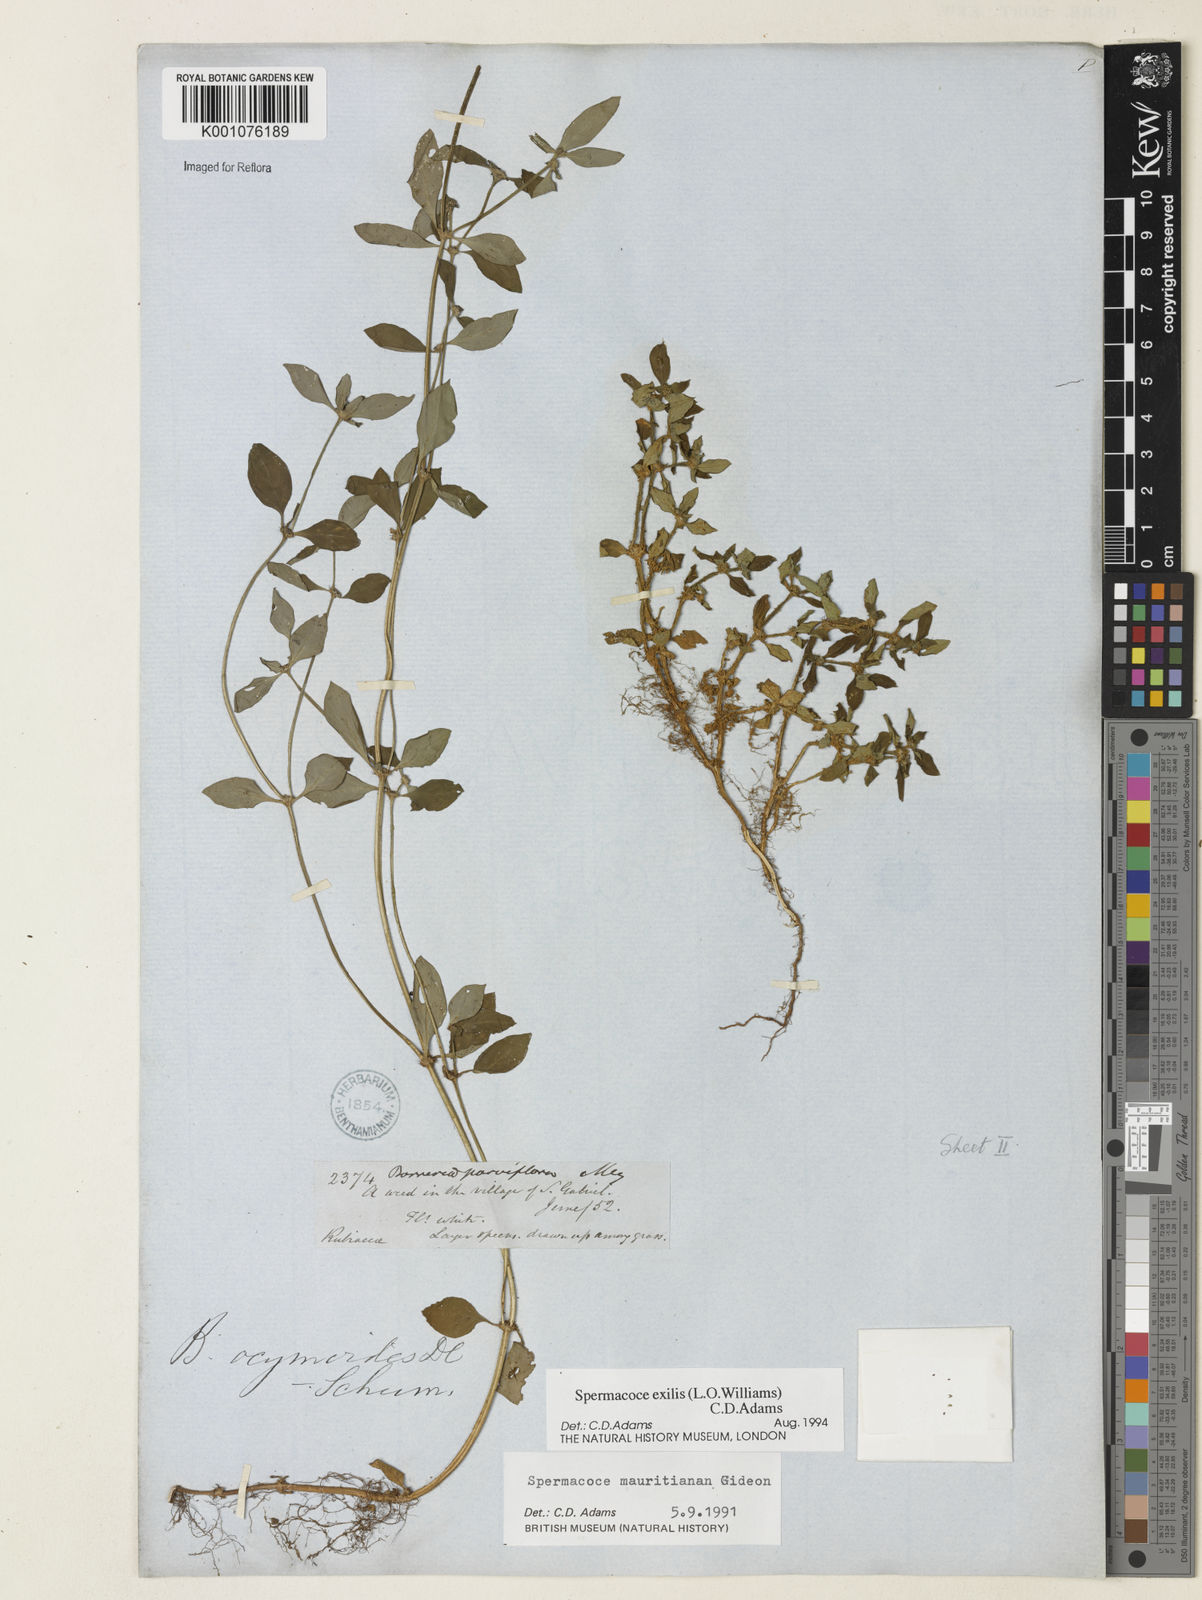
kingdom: Plantae
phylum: Tracheophyta
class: Magnoliopsida
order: Gentianales
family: Rubiaceae
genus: Spermacoce
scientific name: Spermacoce exilis
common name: Pacific false buttonweed
